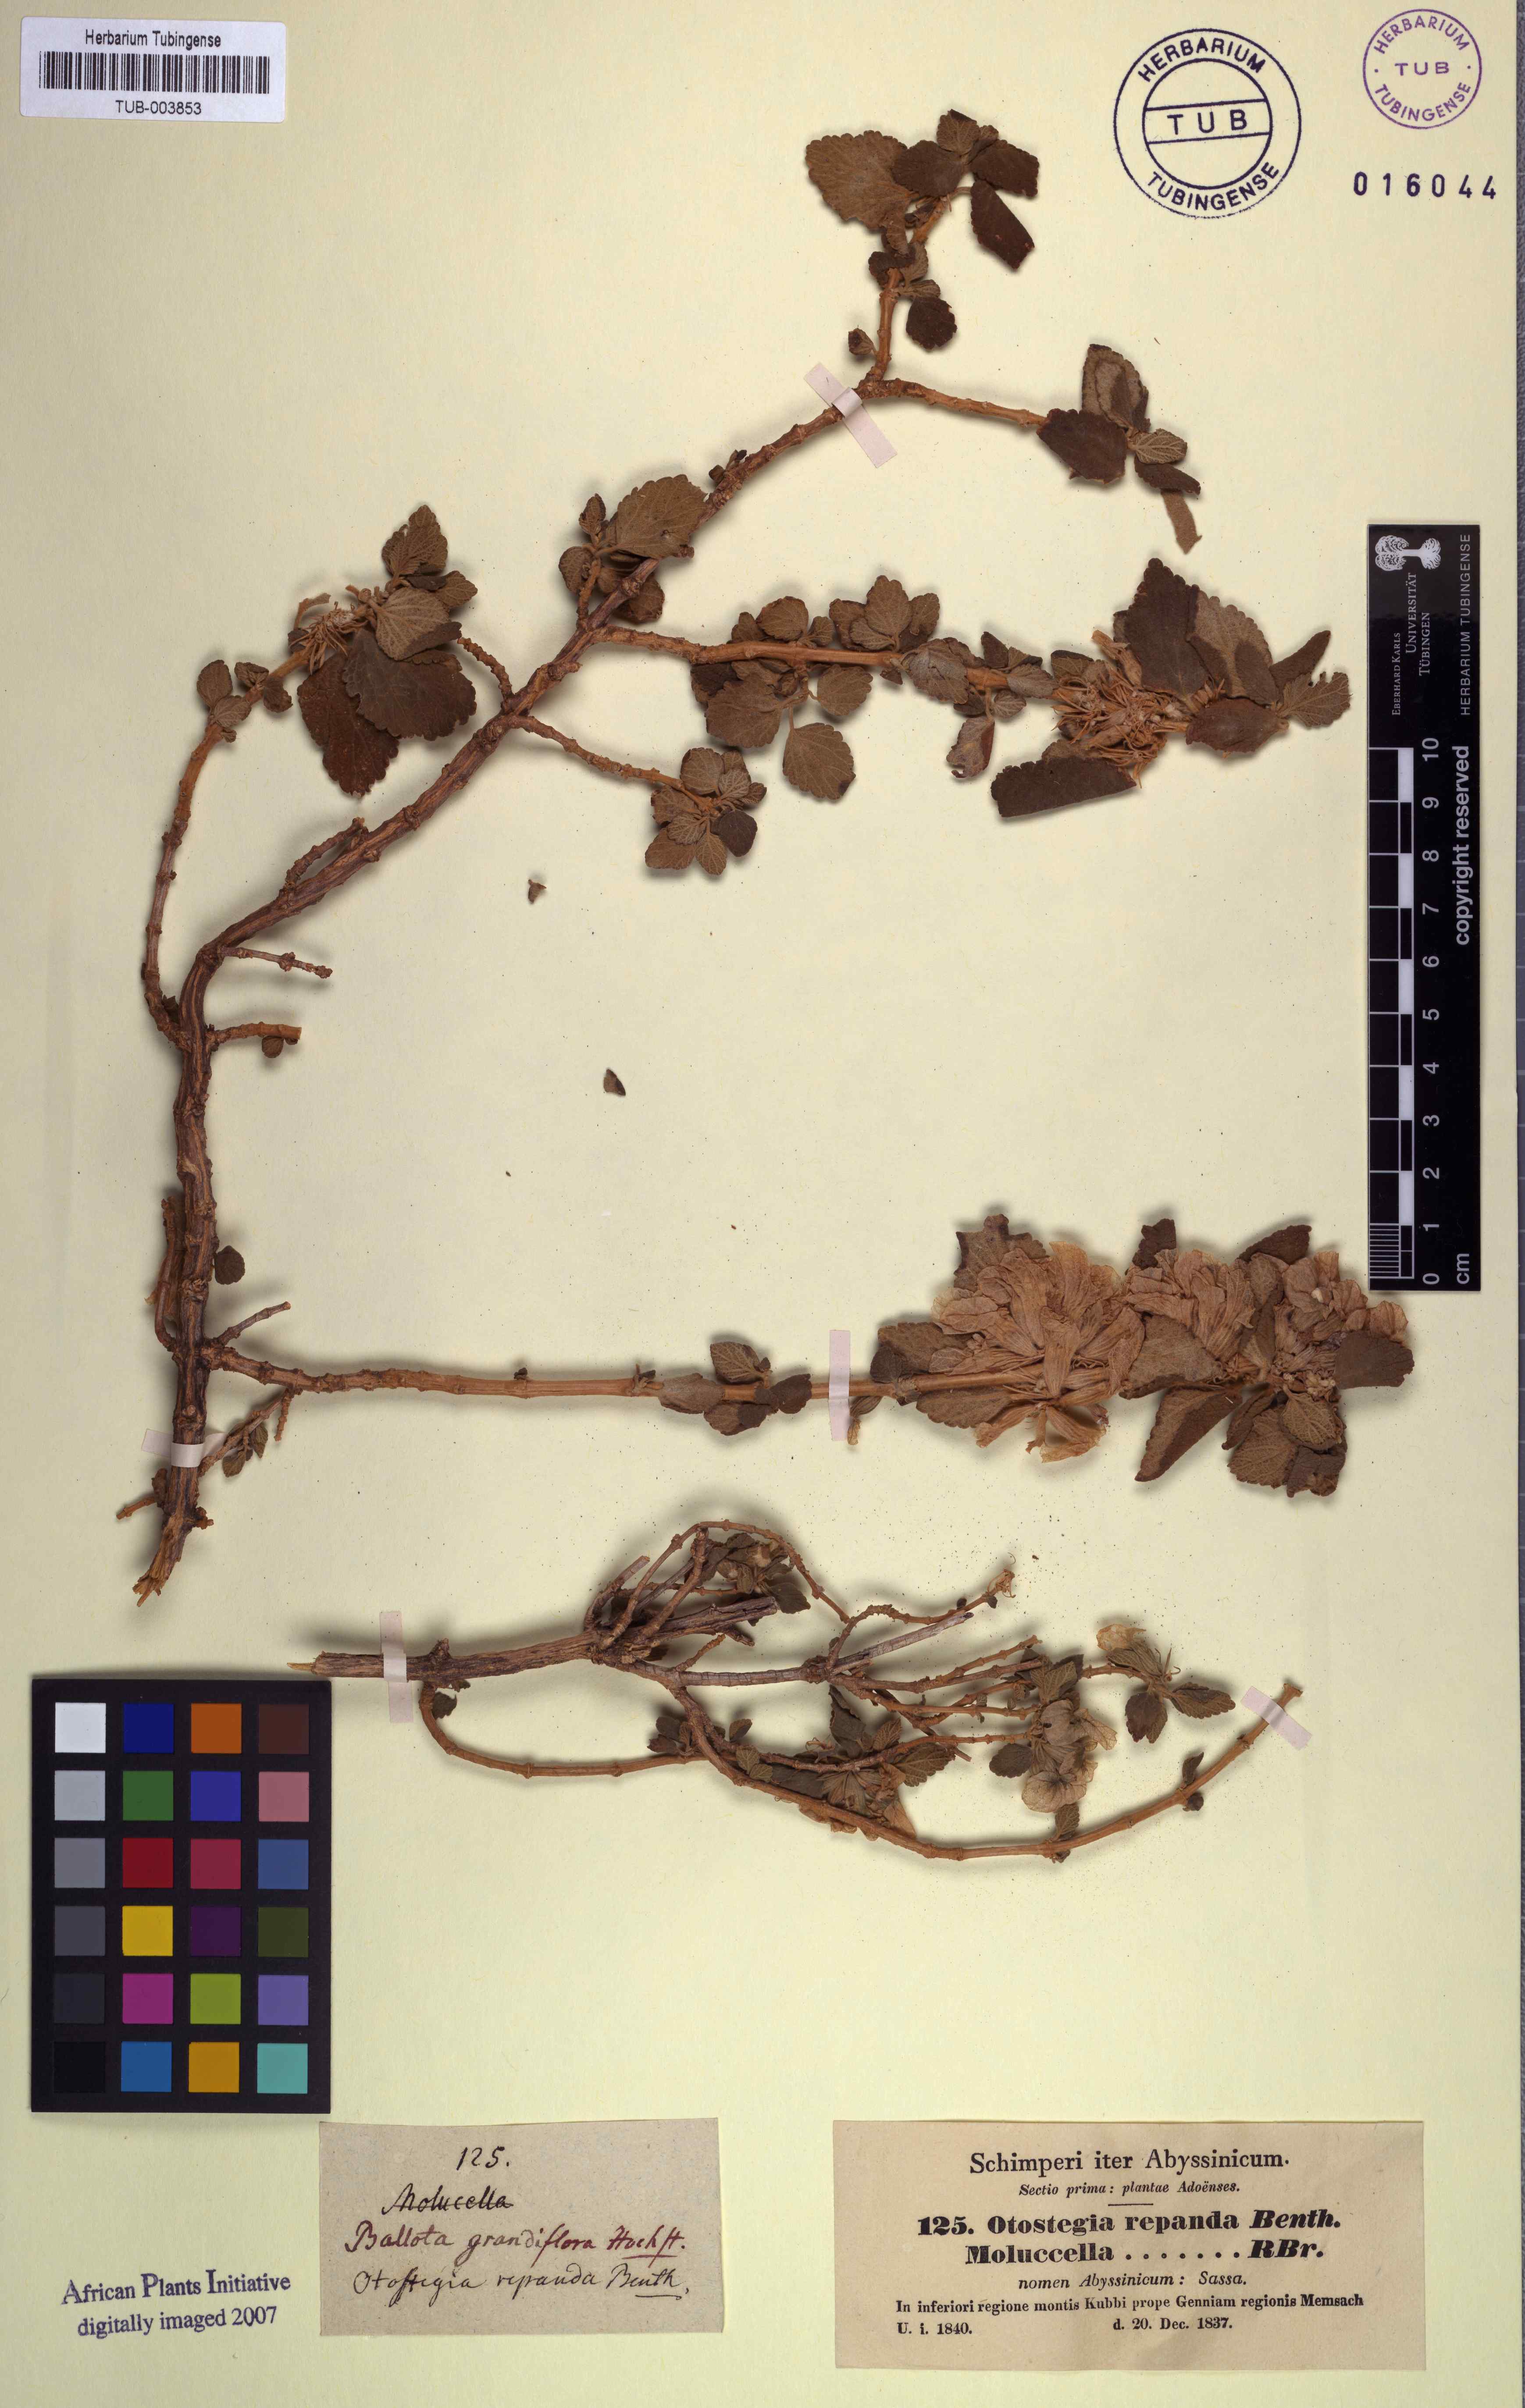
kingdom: Plantae
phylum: Tracheophyta
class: Magnoliopsida
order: Lamiales
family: Lamiaceae
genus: Otostegia
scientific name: Otostegia fruticosa
